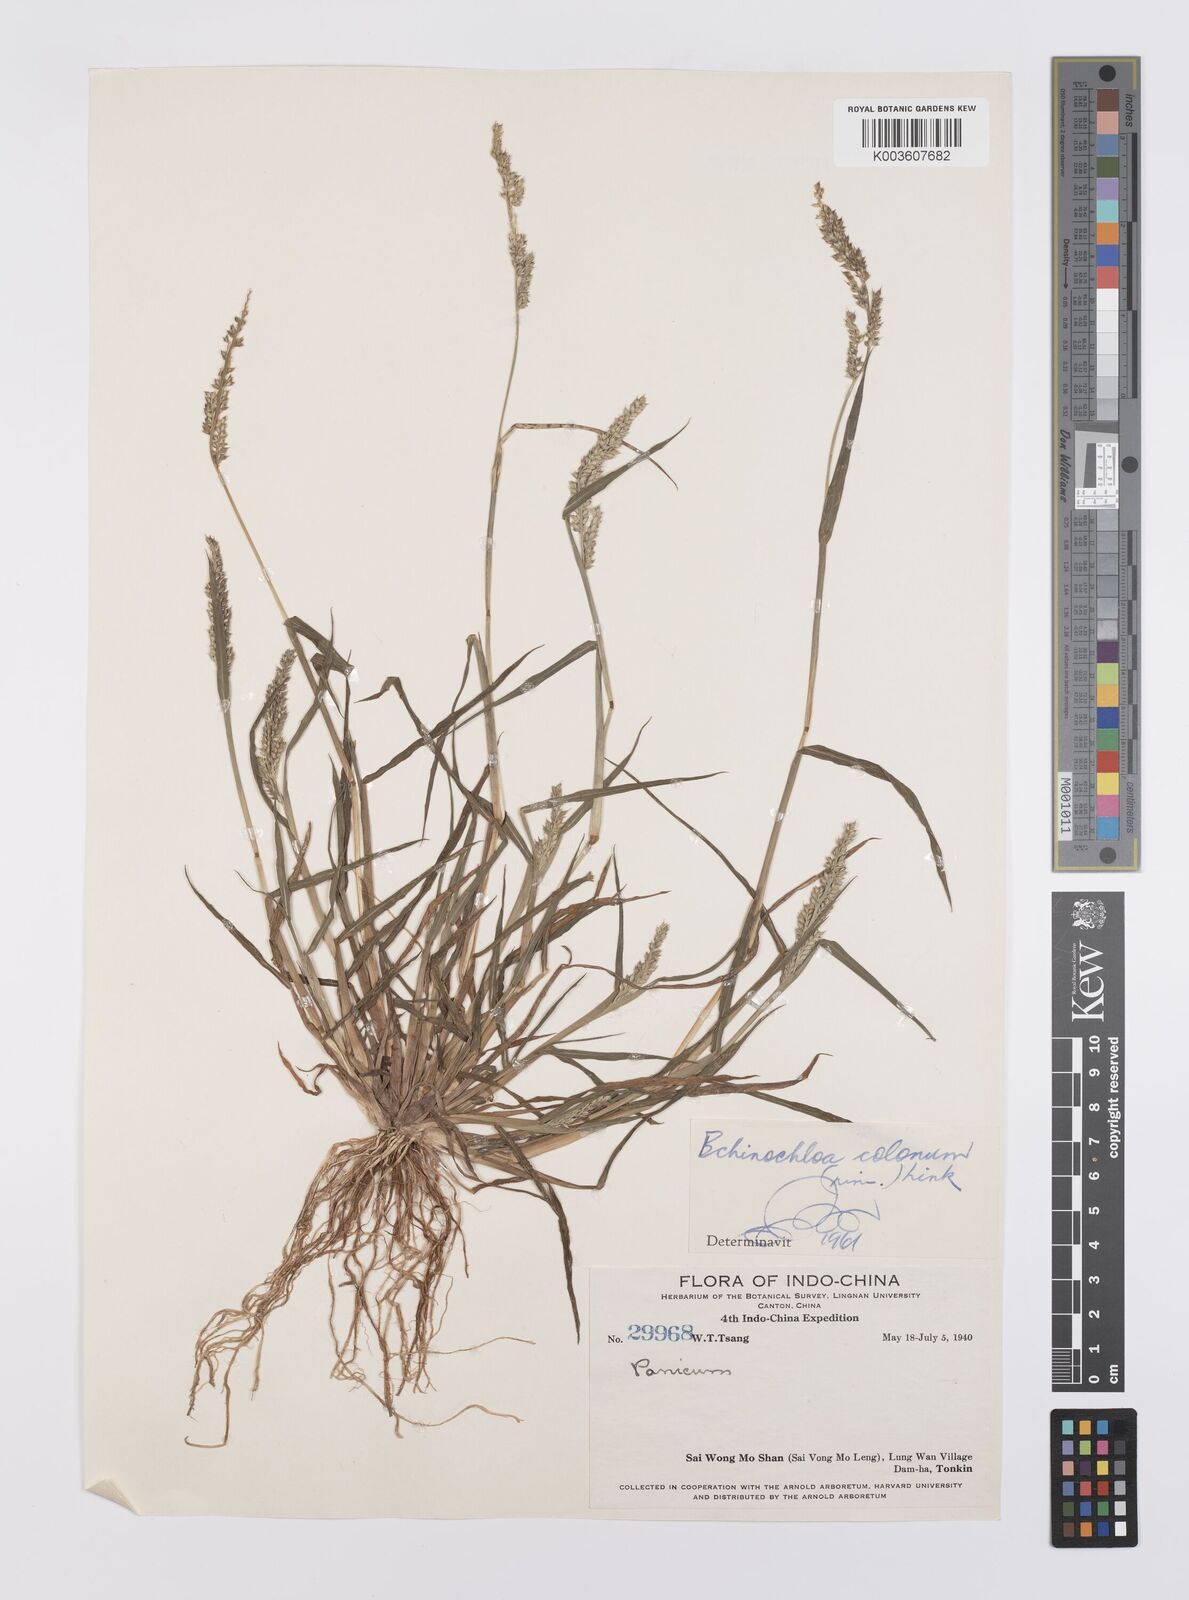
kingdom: Plantae
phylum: Tracheophyta
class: Liliopsida
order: Poales
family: Poaceae
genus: Echinochloa
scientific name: Echinochloa crus-galli
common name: Cockspur
